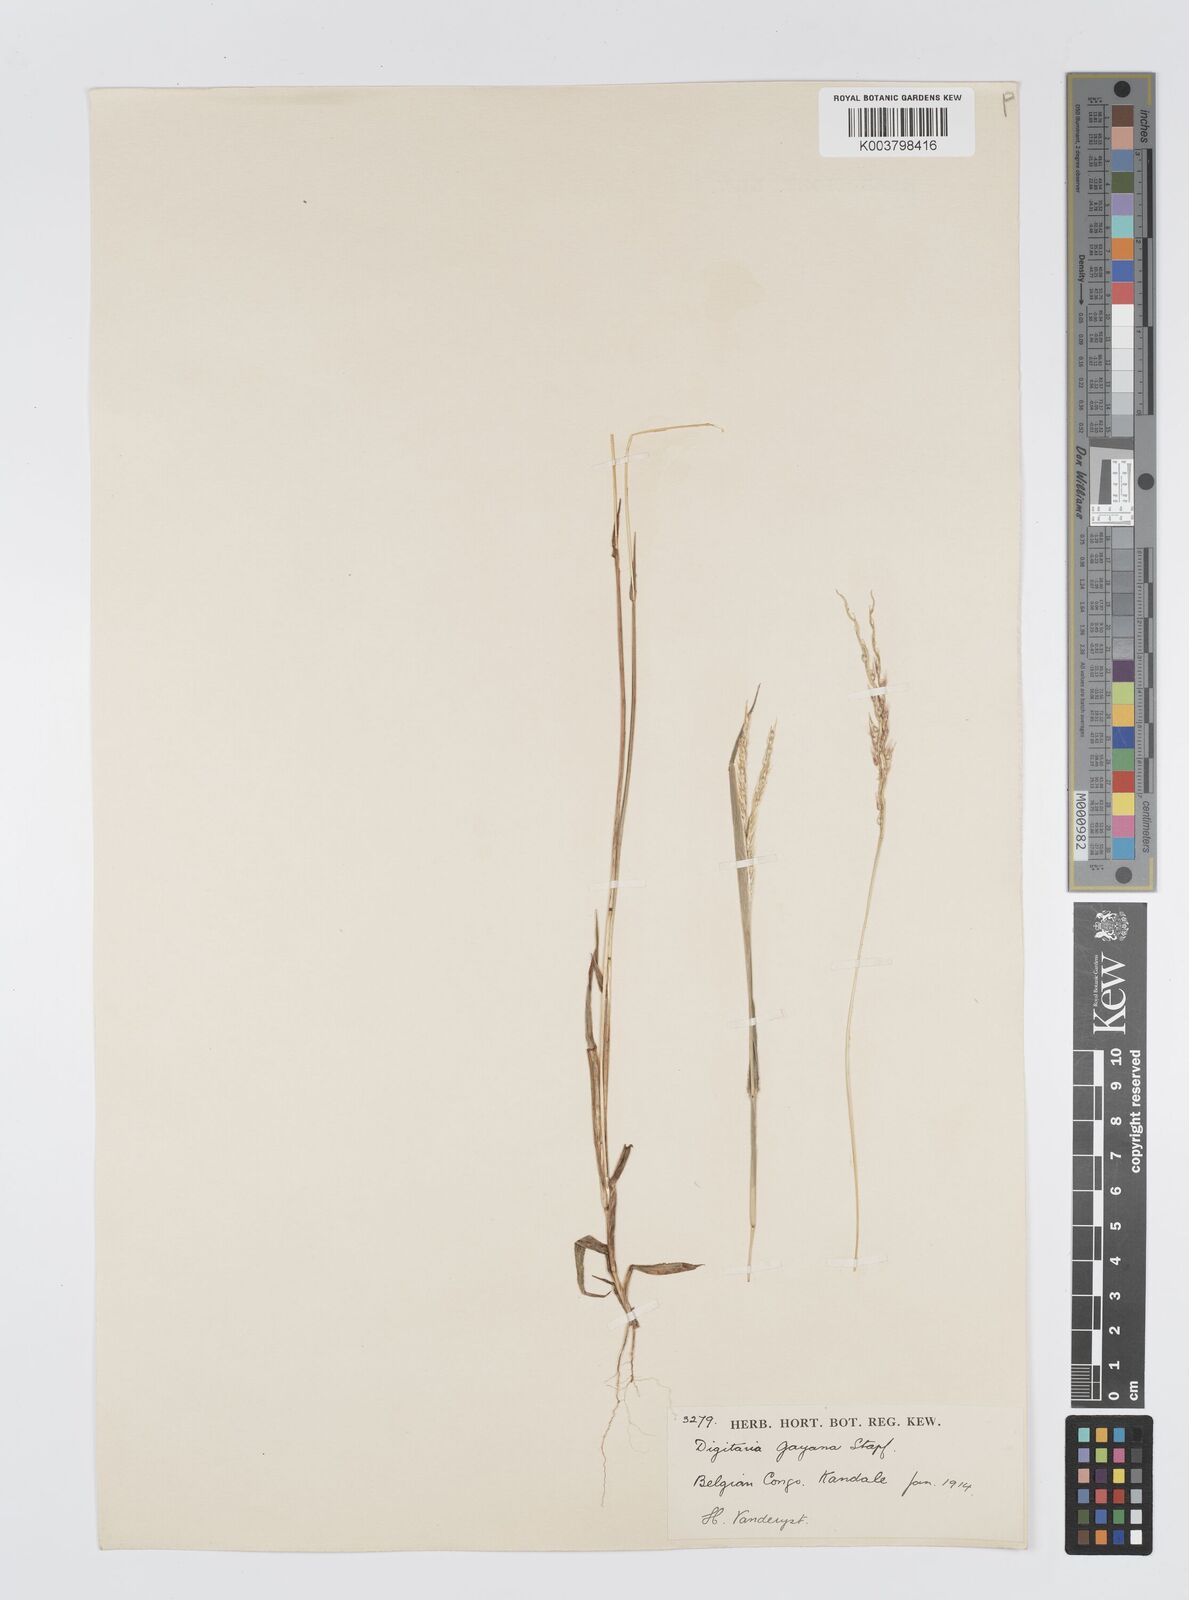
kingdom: Plantae
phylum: Tracheophyta
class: Liliopsida
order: Poales
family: Poaceae
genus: Digitaria
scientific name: Digitaria gayana
